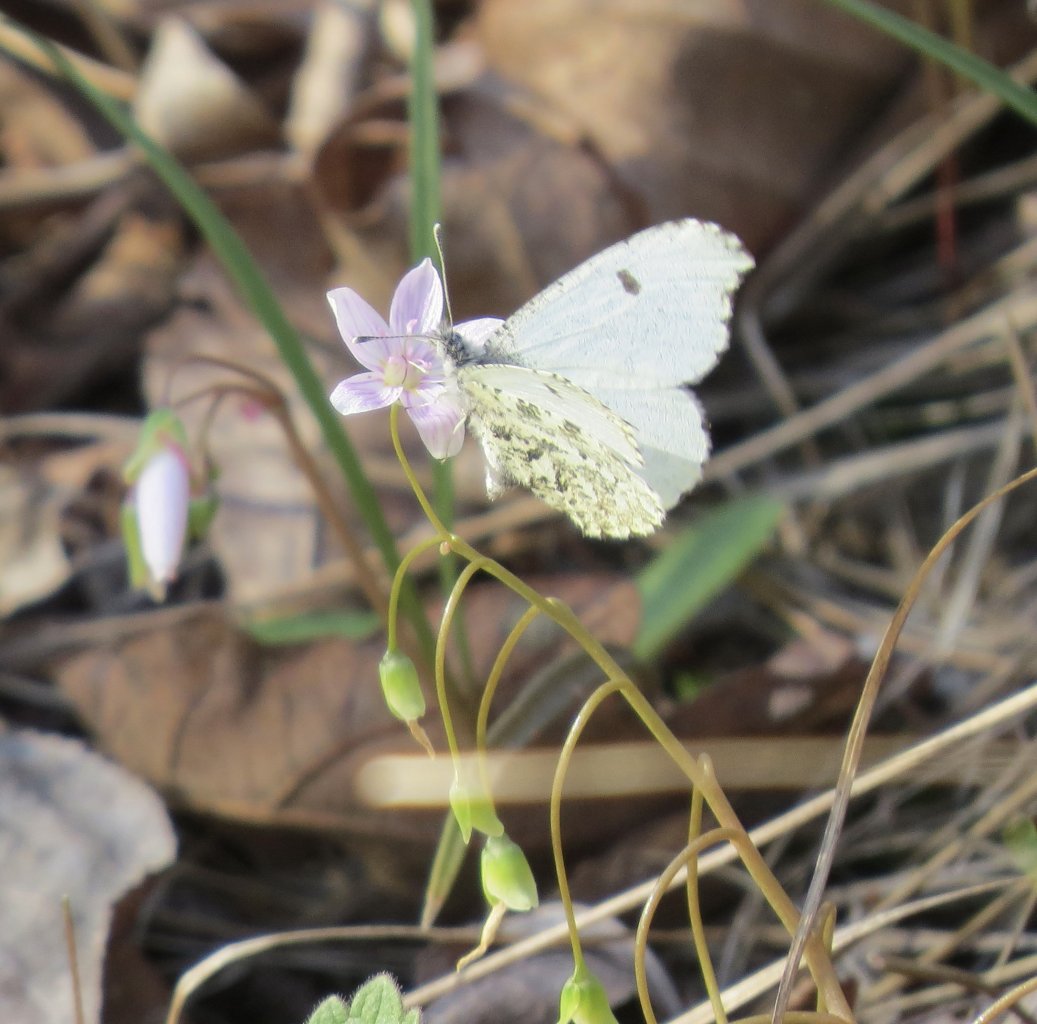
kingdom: Animalia
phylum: Arthropoda
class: Insecta
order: Lepidoptera
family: Pieridae
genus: Anthocharis
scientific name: Anthocharis midea
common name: Falcate Orangetip
